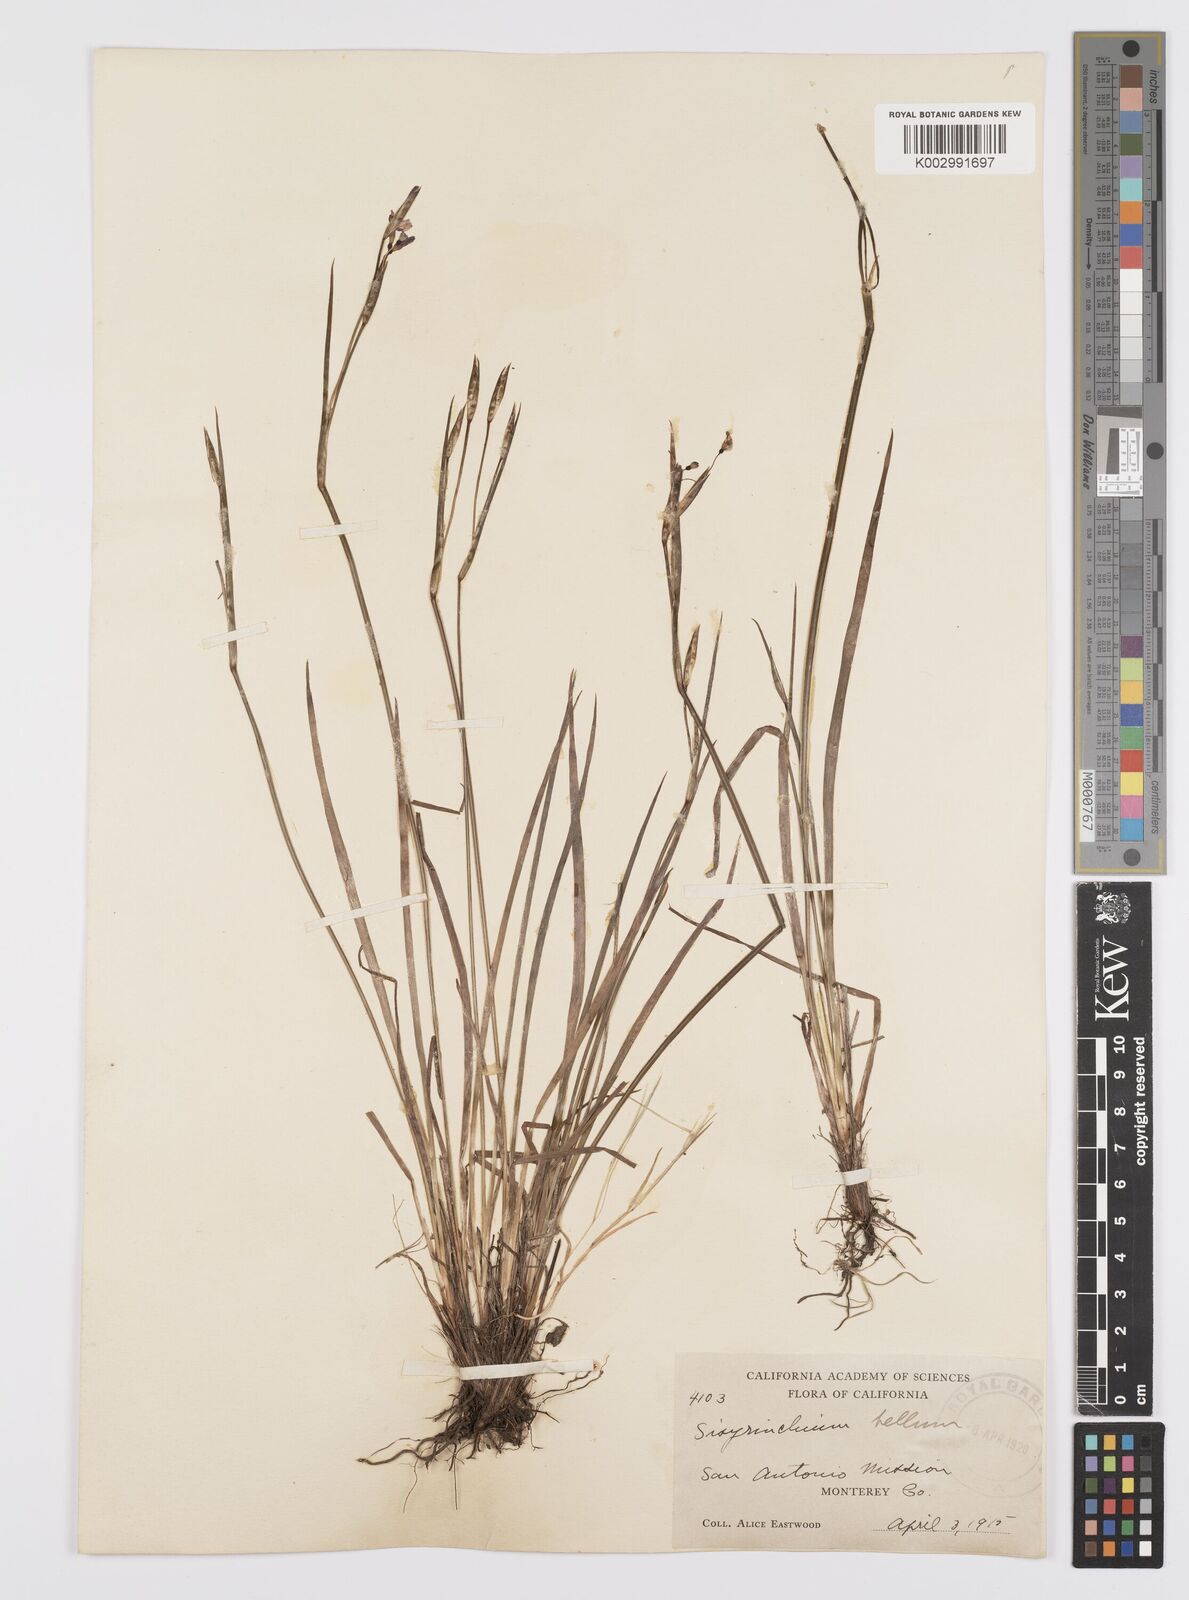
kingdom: Plantae
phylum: Tracheophyta
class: Liliopsida
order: Asparagales
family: Iridaceae
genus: Sisyrinchium
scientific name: Sisyrinchium bellum
